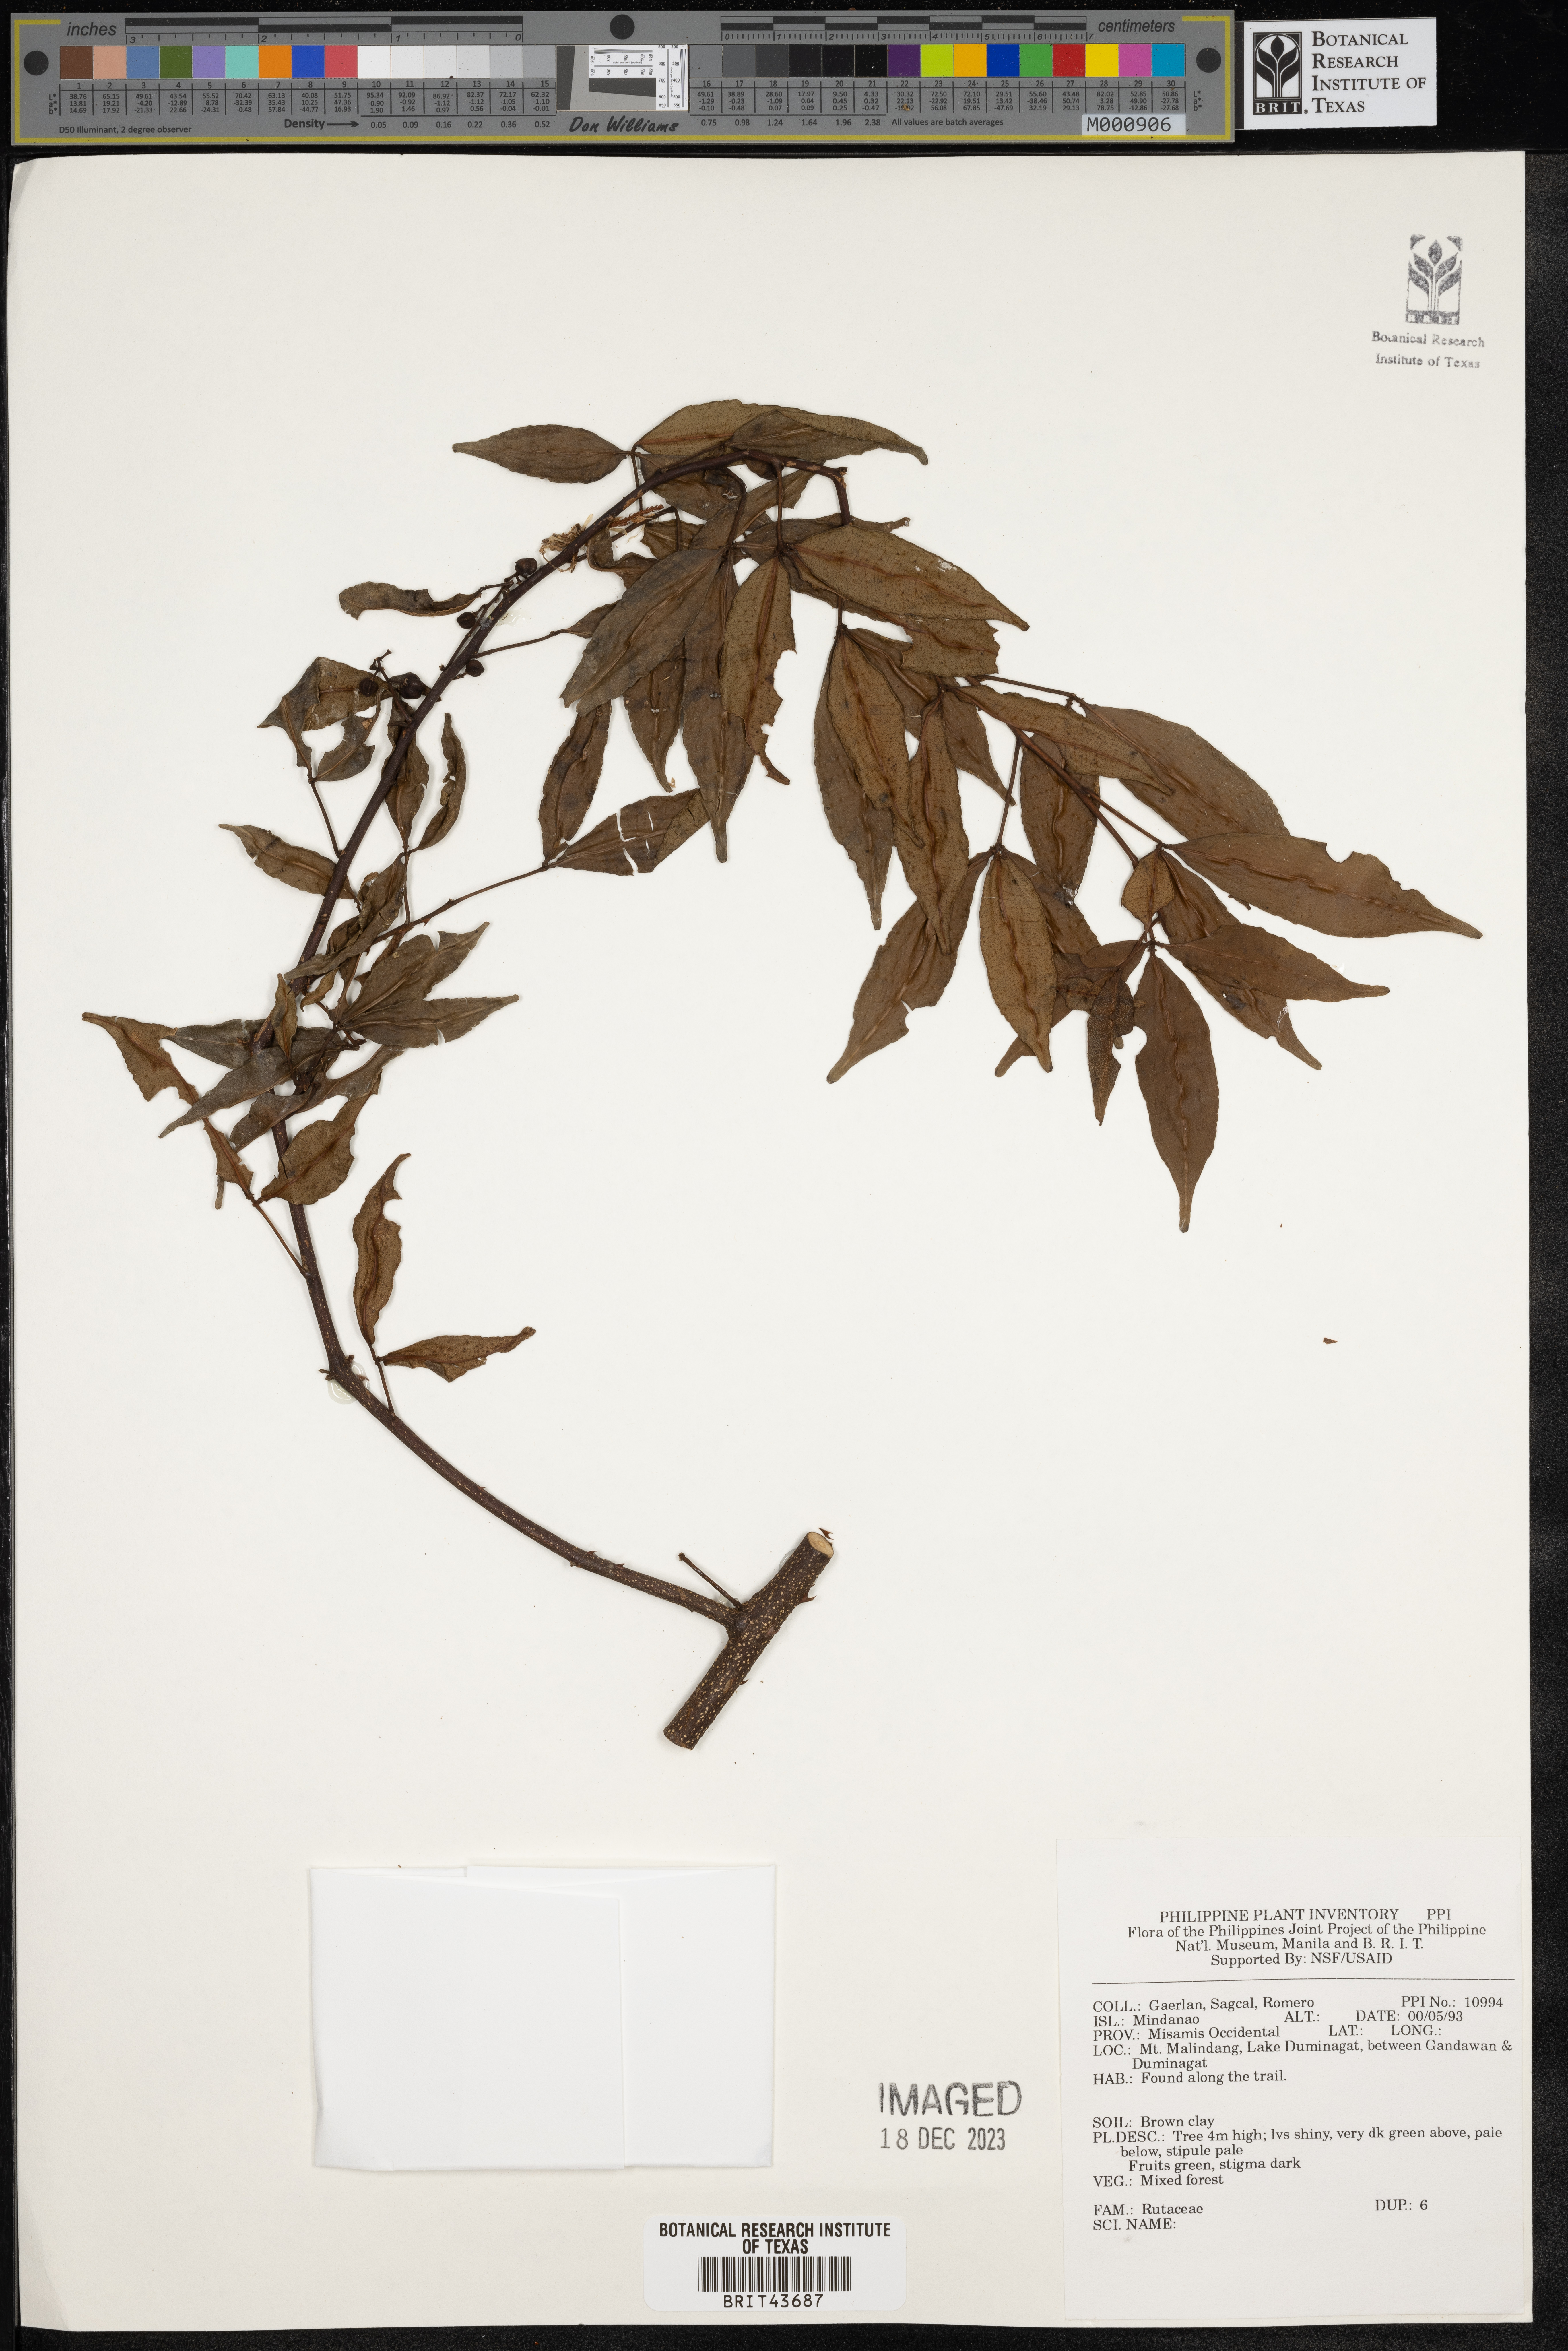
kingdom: Plantae
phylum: Tracheophyta
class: Magnoliopsida
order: Sapindales
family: Rutaceae
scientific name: Rutaceae
